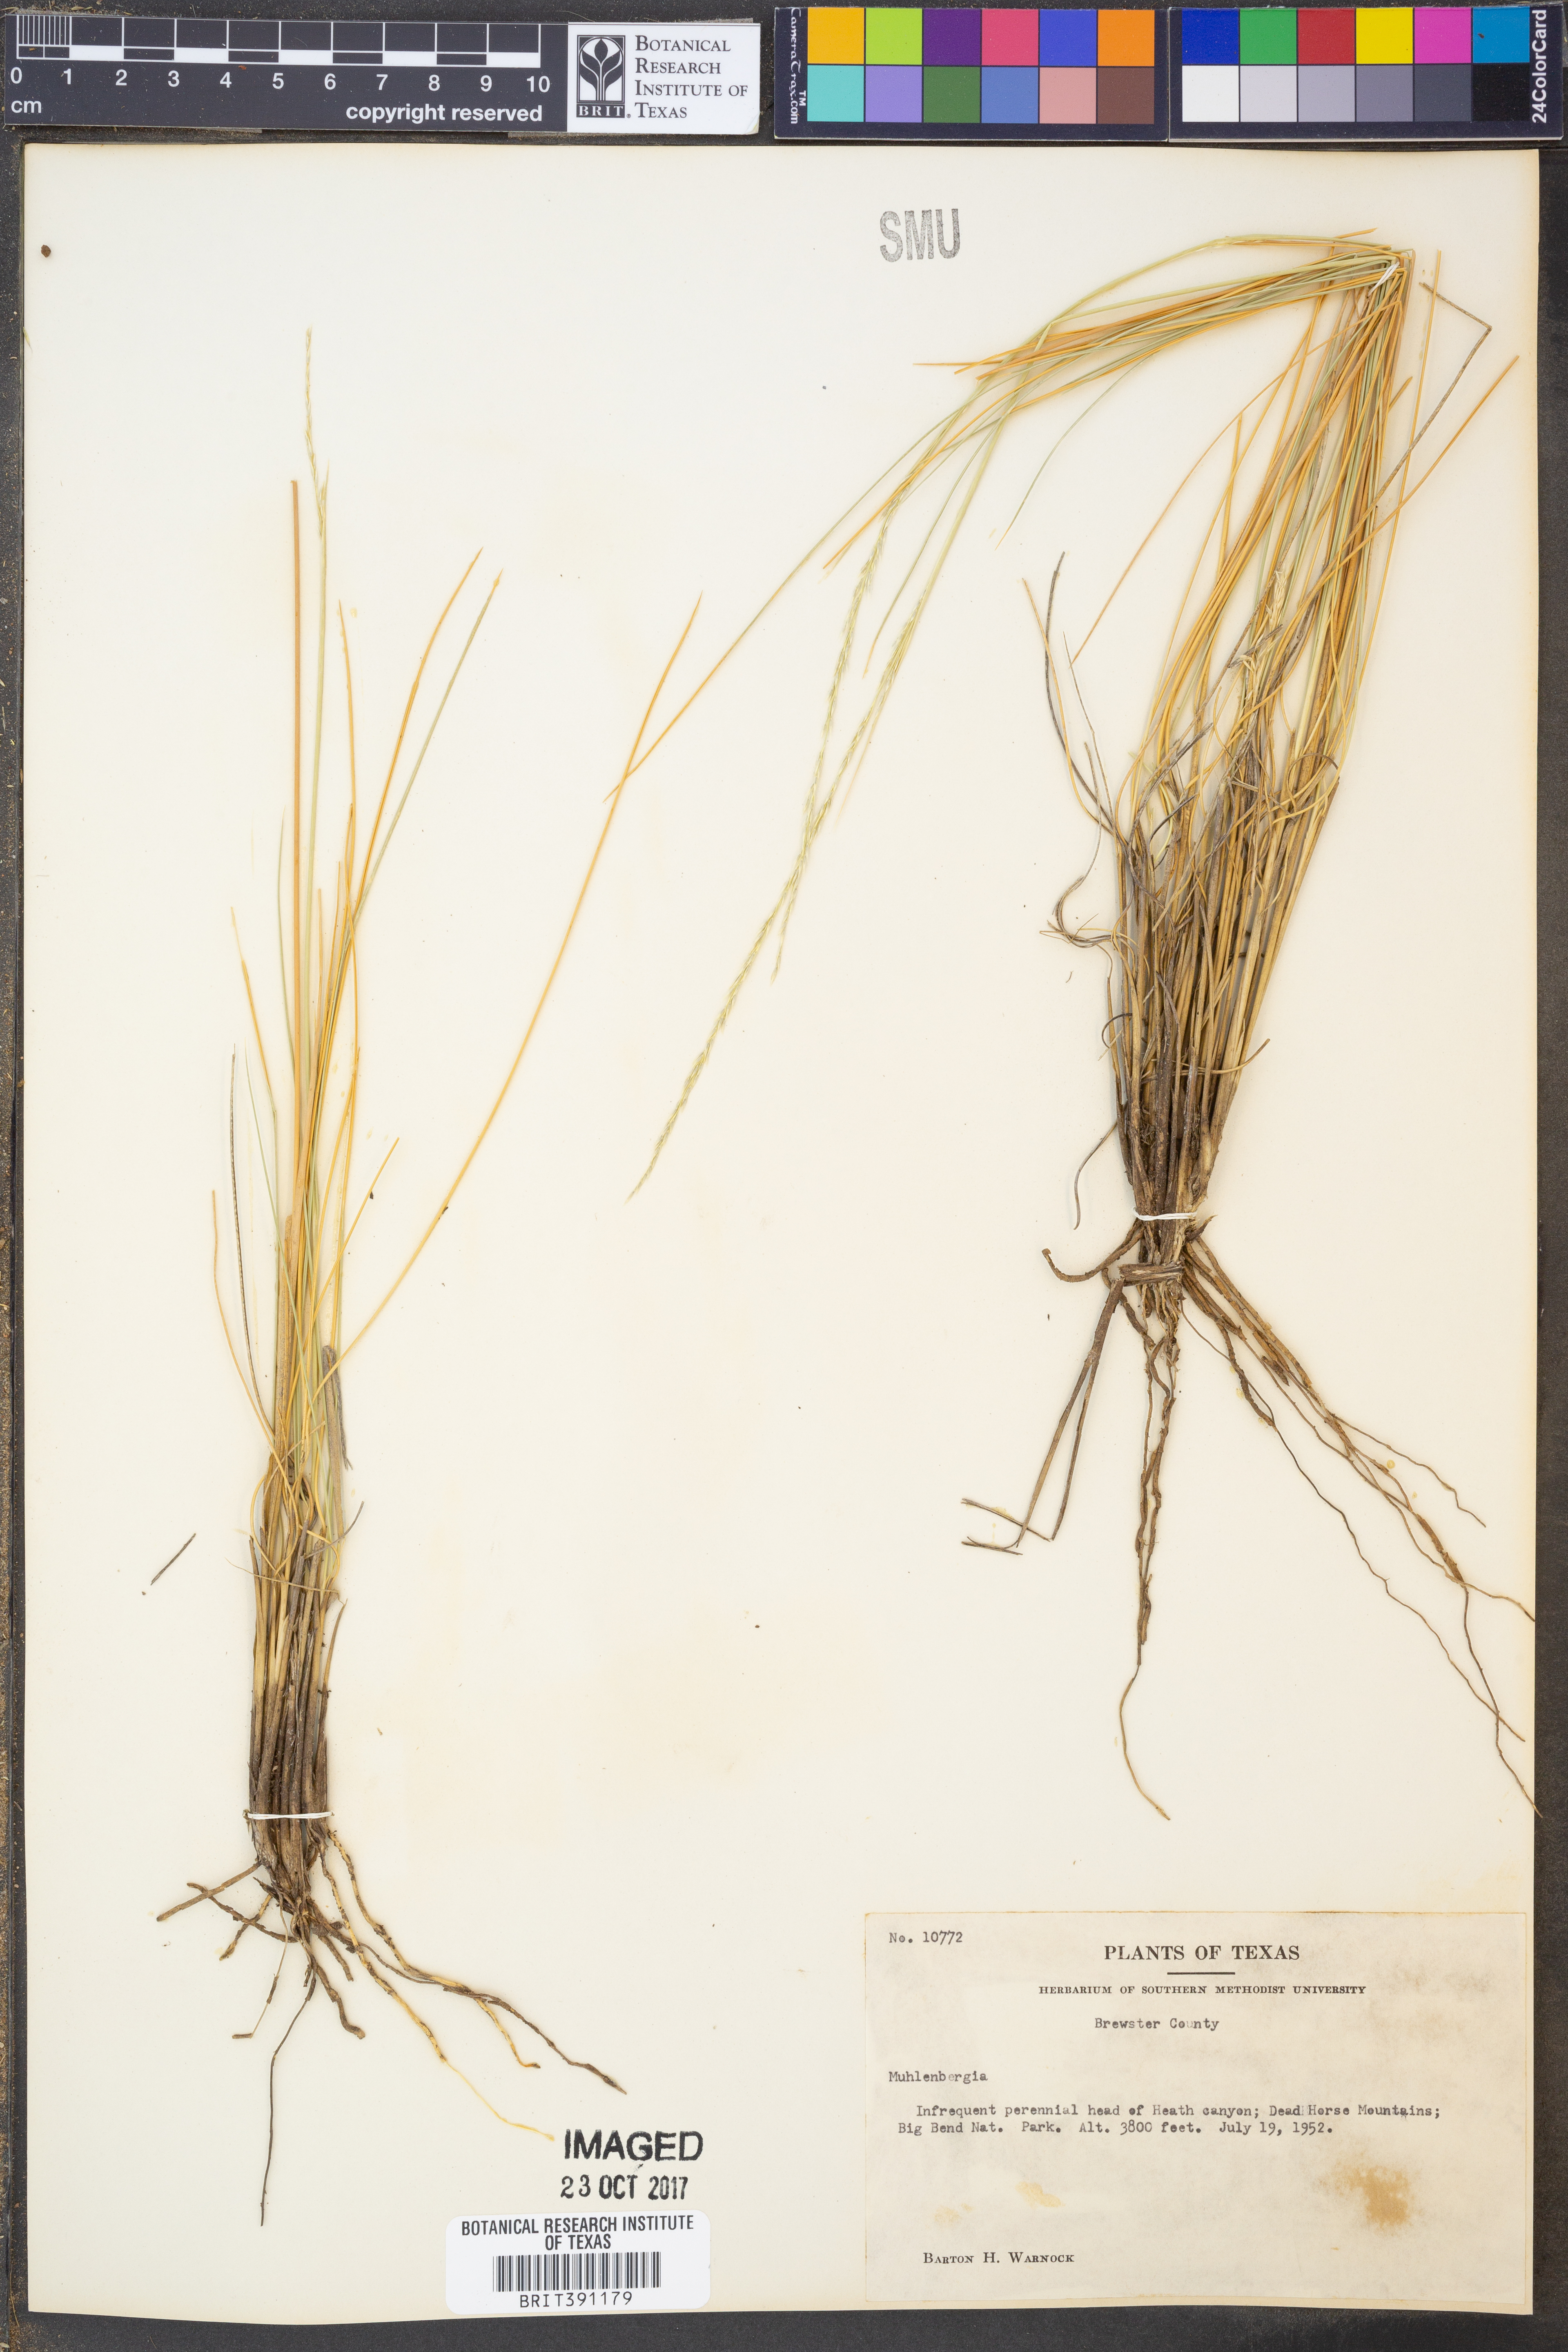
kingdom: Plantae
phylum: Tracheophyta
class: Liliopsida
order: Poales
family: Poaceae
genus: Muhlenbergia
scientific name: Muhlenbergia
